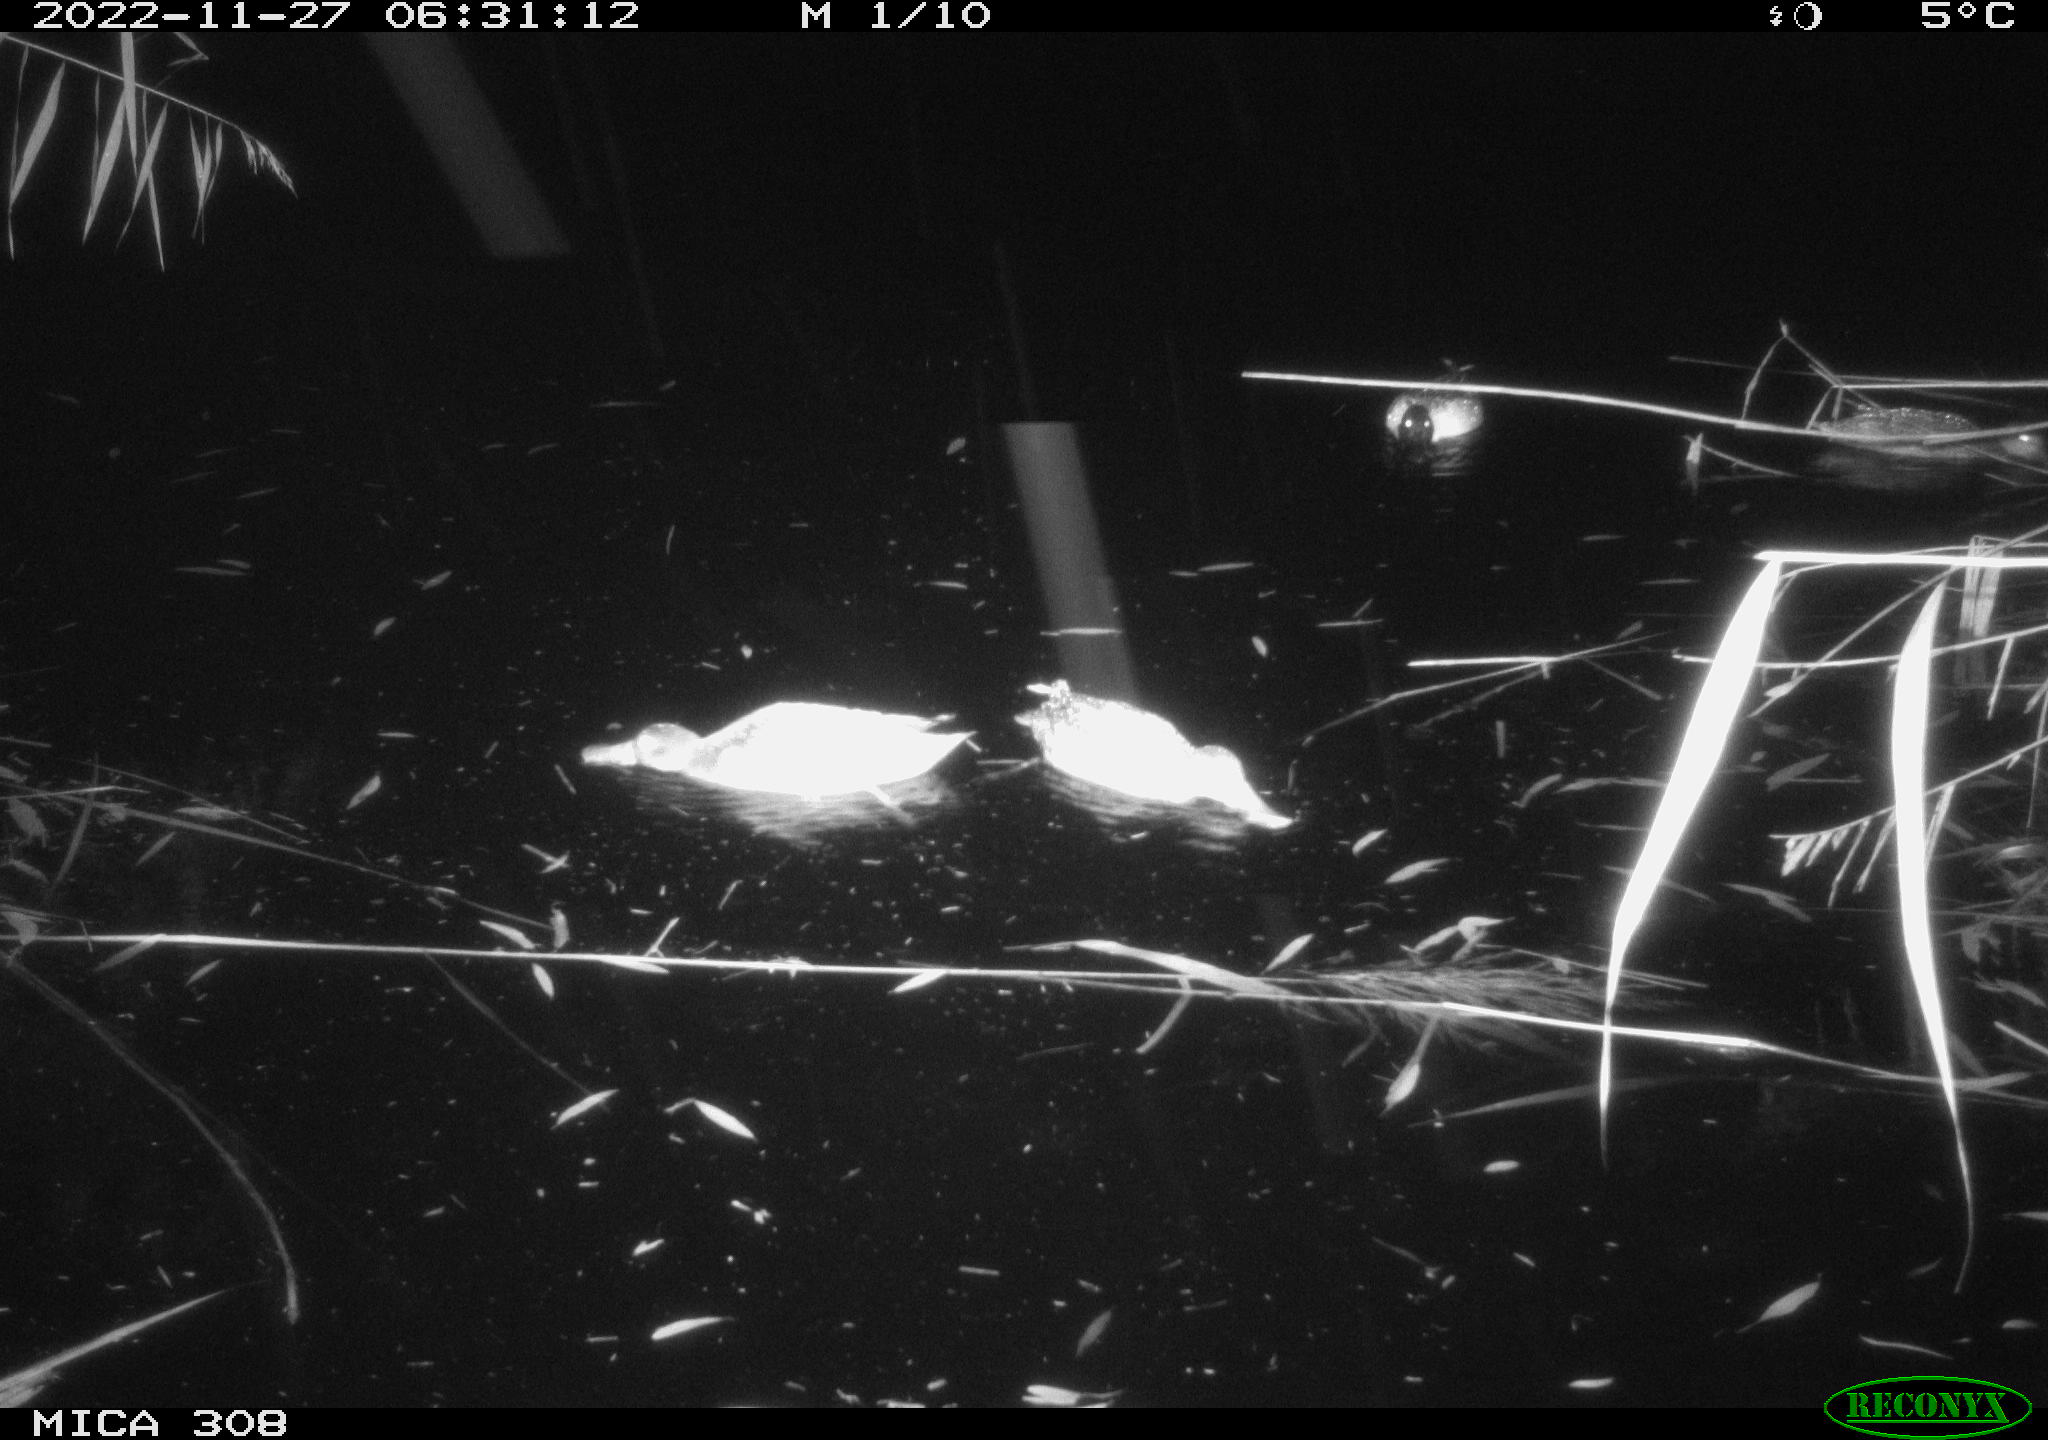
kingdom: Animalia
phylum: Chordata
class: Aves
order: Anseriformes
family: Anatidae
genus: Anas
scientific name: Anas
